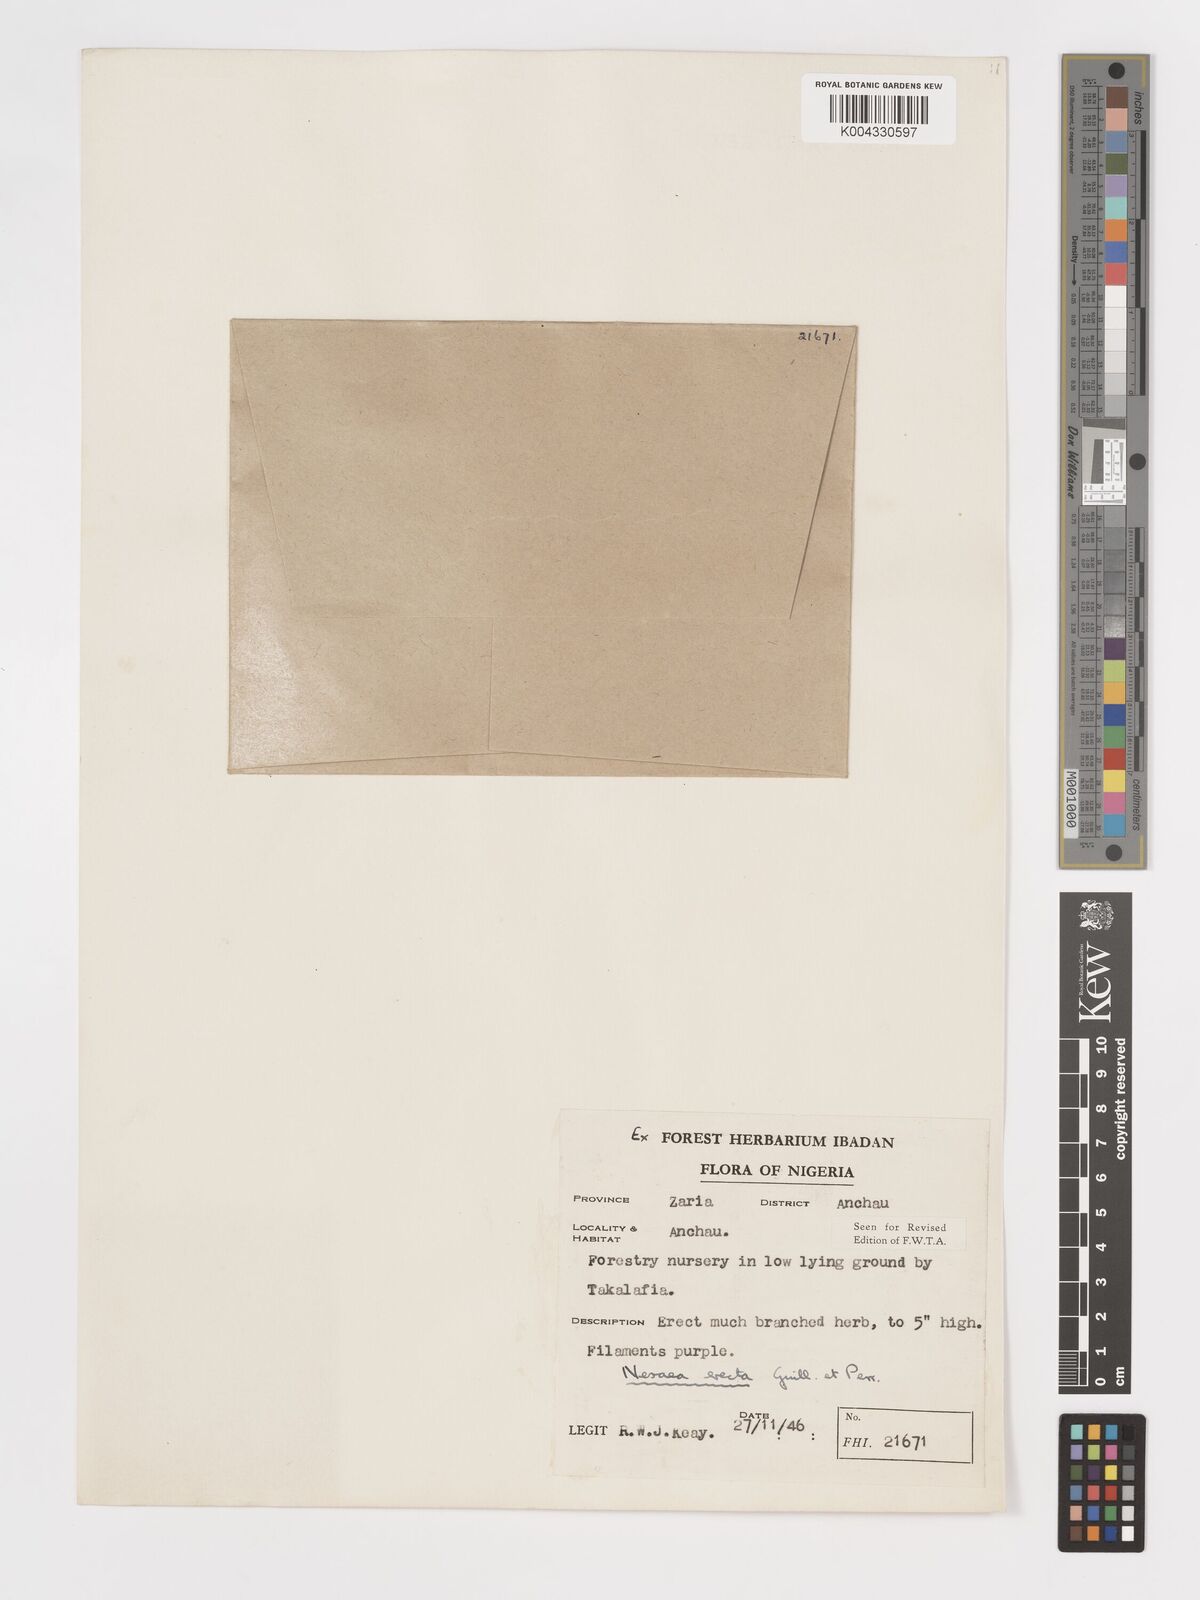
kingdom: Plantae
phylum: Tracheophyta
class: Magnoliopsida
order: Myrtales
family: Lythraceae
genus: Ammannia
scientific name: Ammannia erecta
